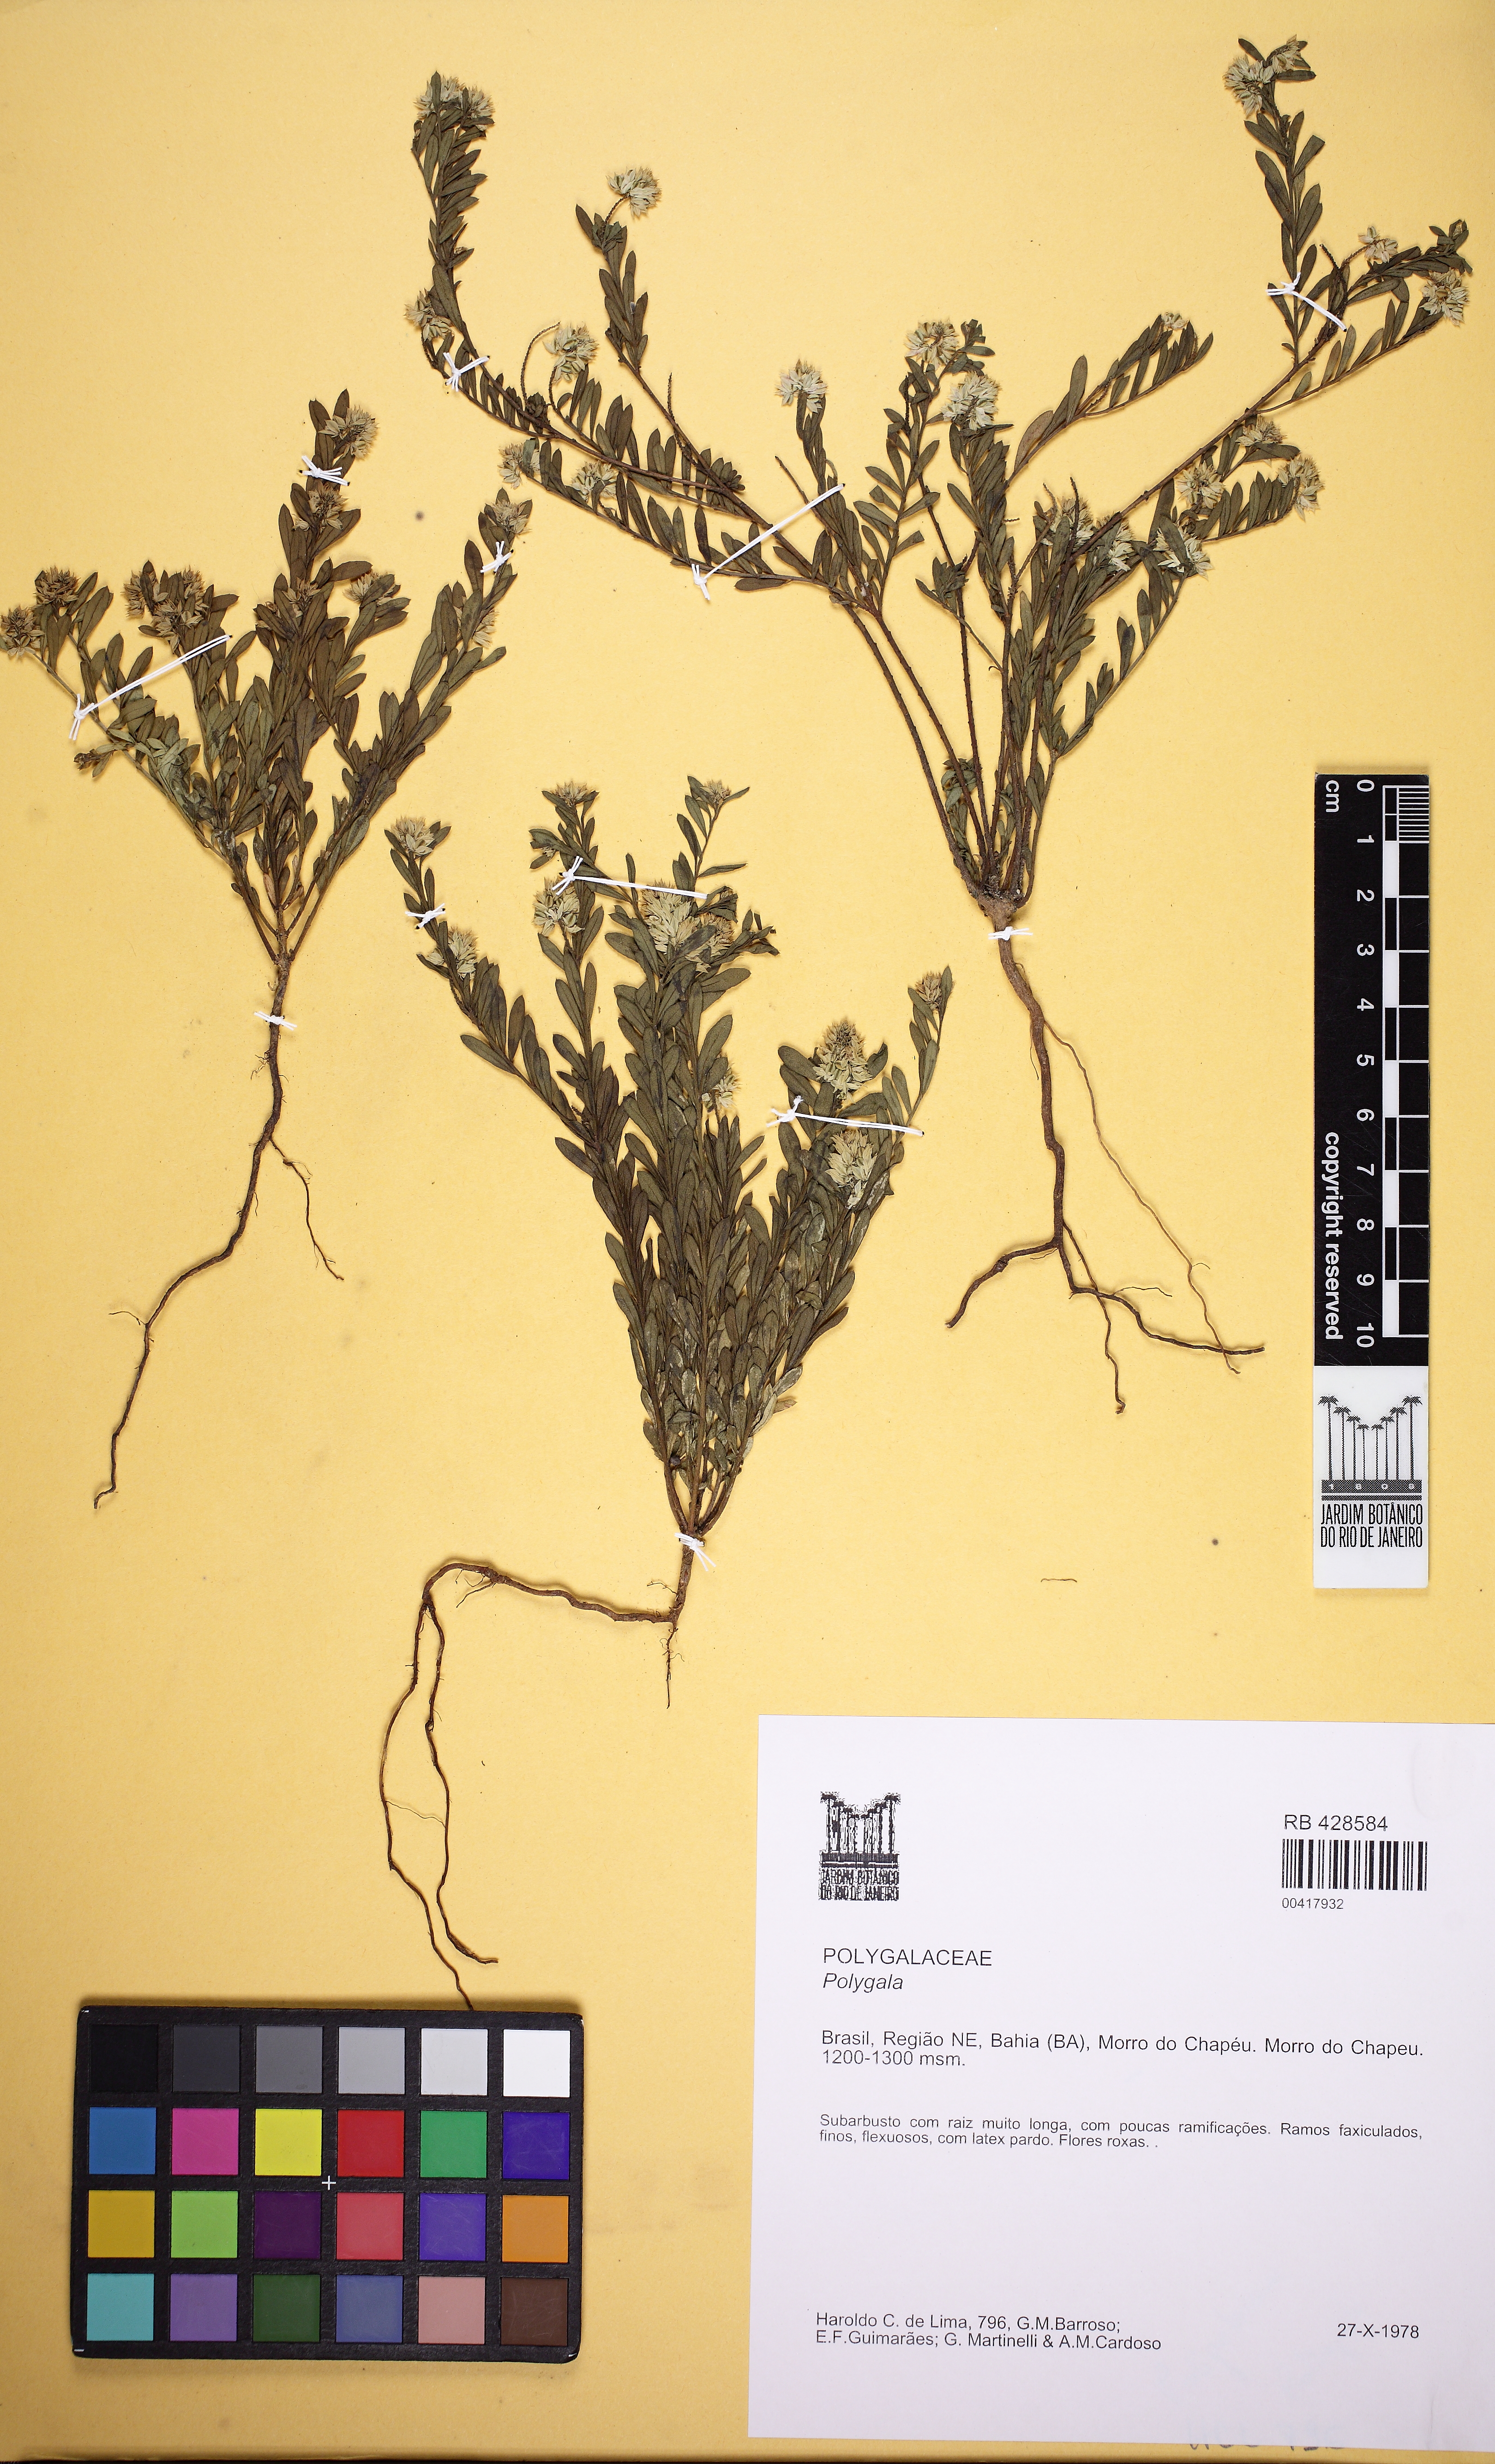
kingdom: Plantae
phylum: Tracheophyta
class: Magnoliopsida
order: Fabales
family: Polygalaceae
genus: Polygala
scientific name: Polygala cneorum
